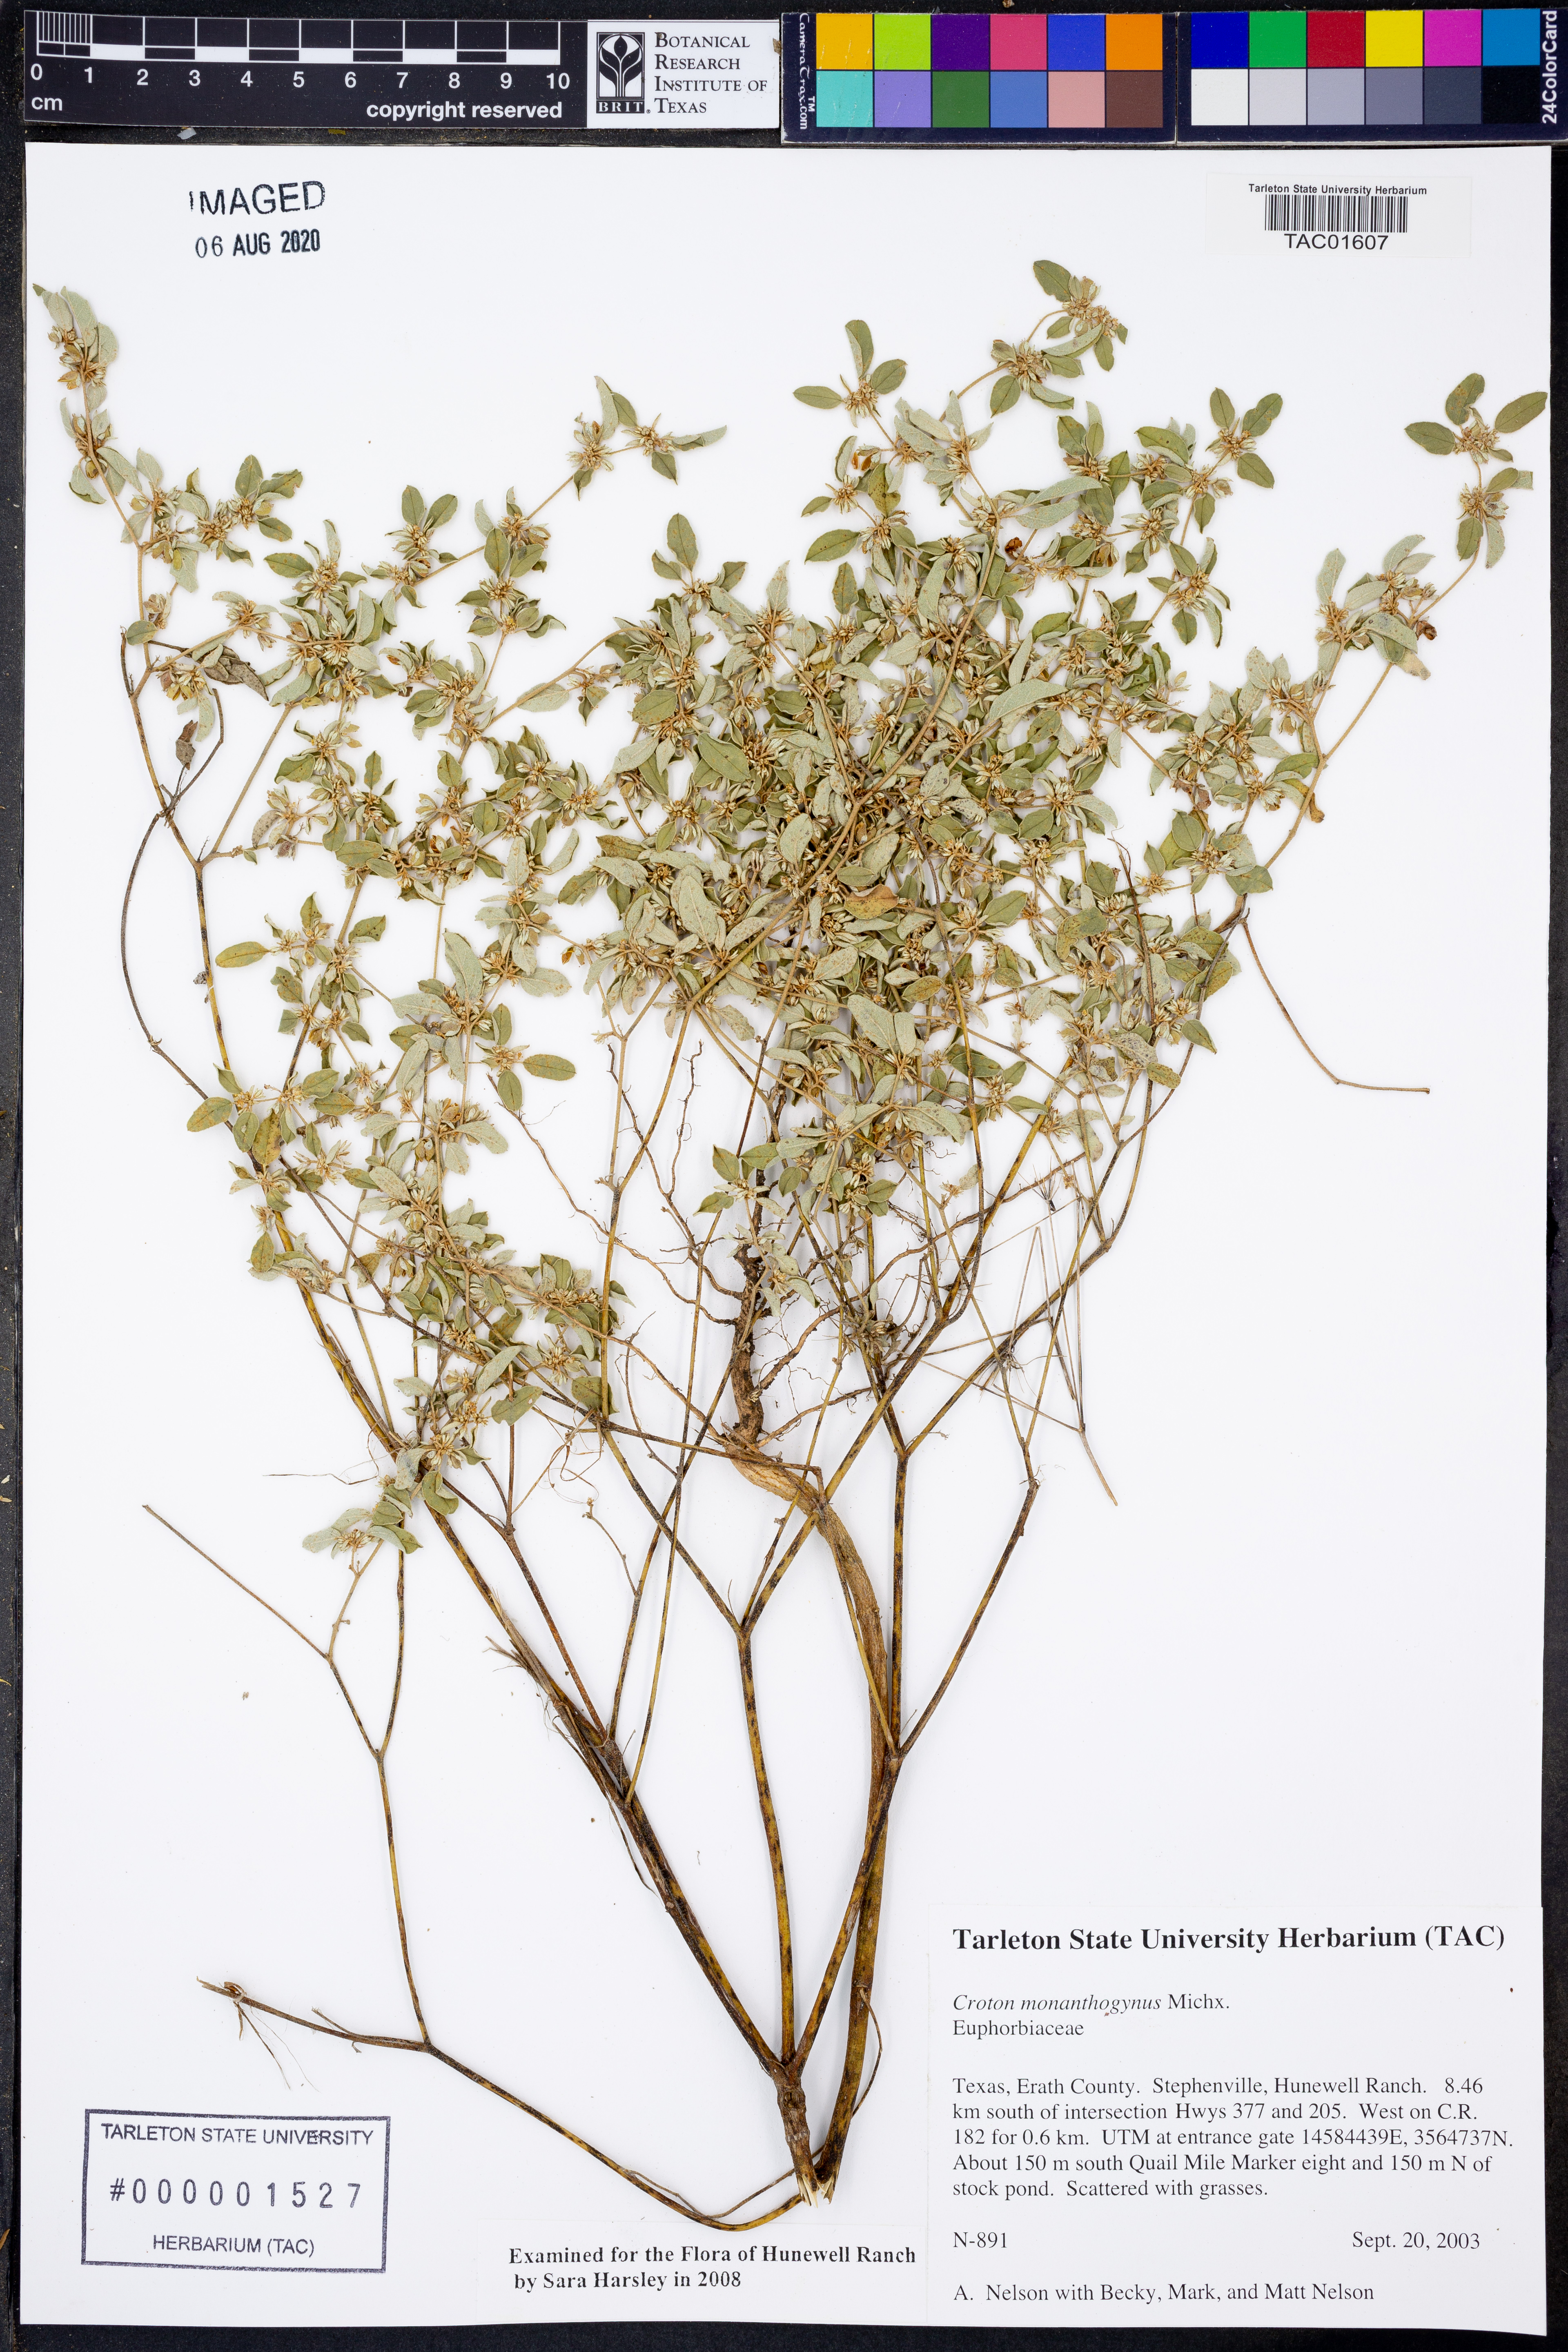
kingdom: Plantae
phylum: Tracheophyta
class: Magnoliopsida
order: Malpighiales
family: Euphorbiaceae
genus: Croton
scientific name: Croton monanthogynus
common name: One-seed croton
